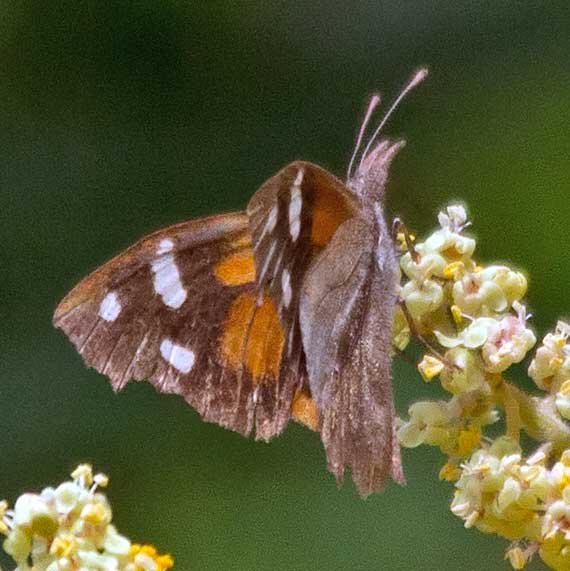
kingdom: Animalia
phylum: Arthropoda
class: Insecta
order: Lepidoptera
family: Nymphalidae
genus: Libytheana
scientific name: Libytheana carinenta
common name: American Snout
